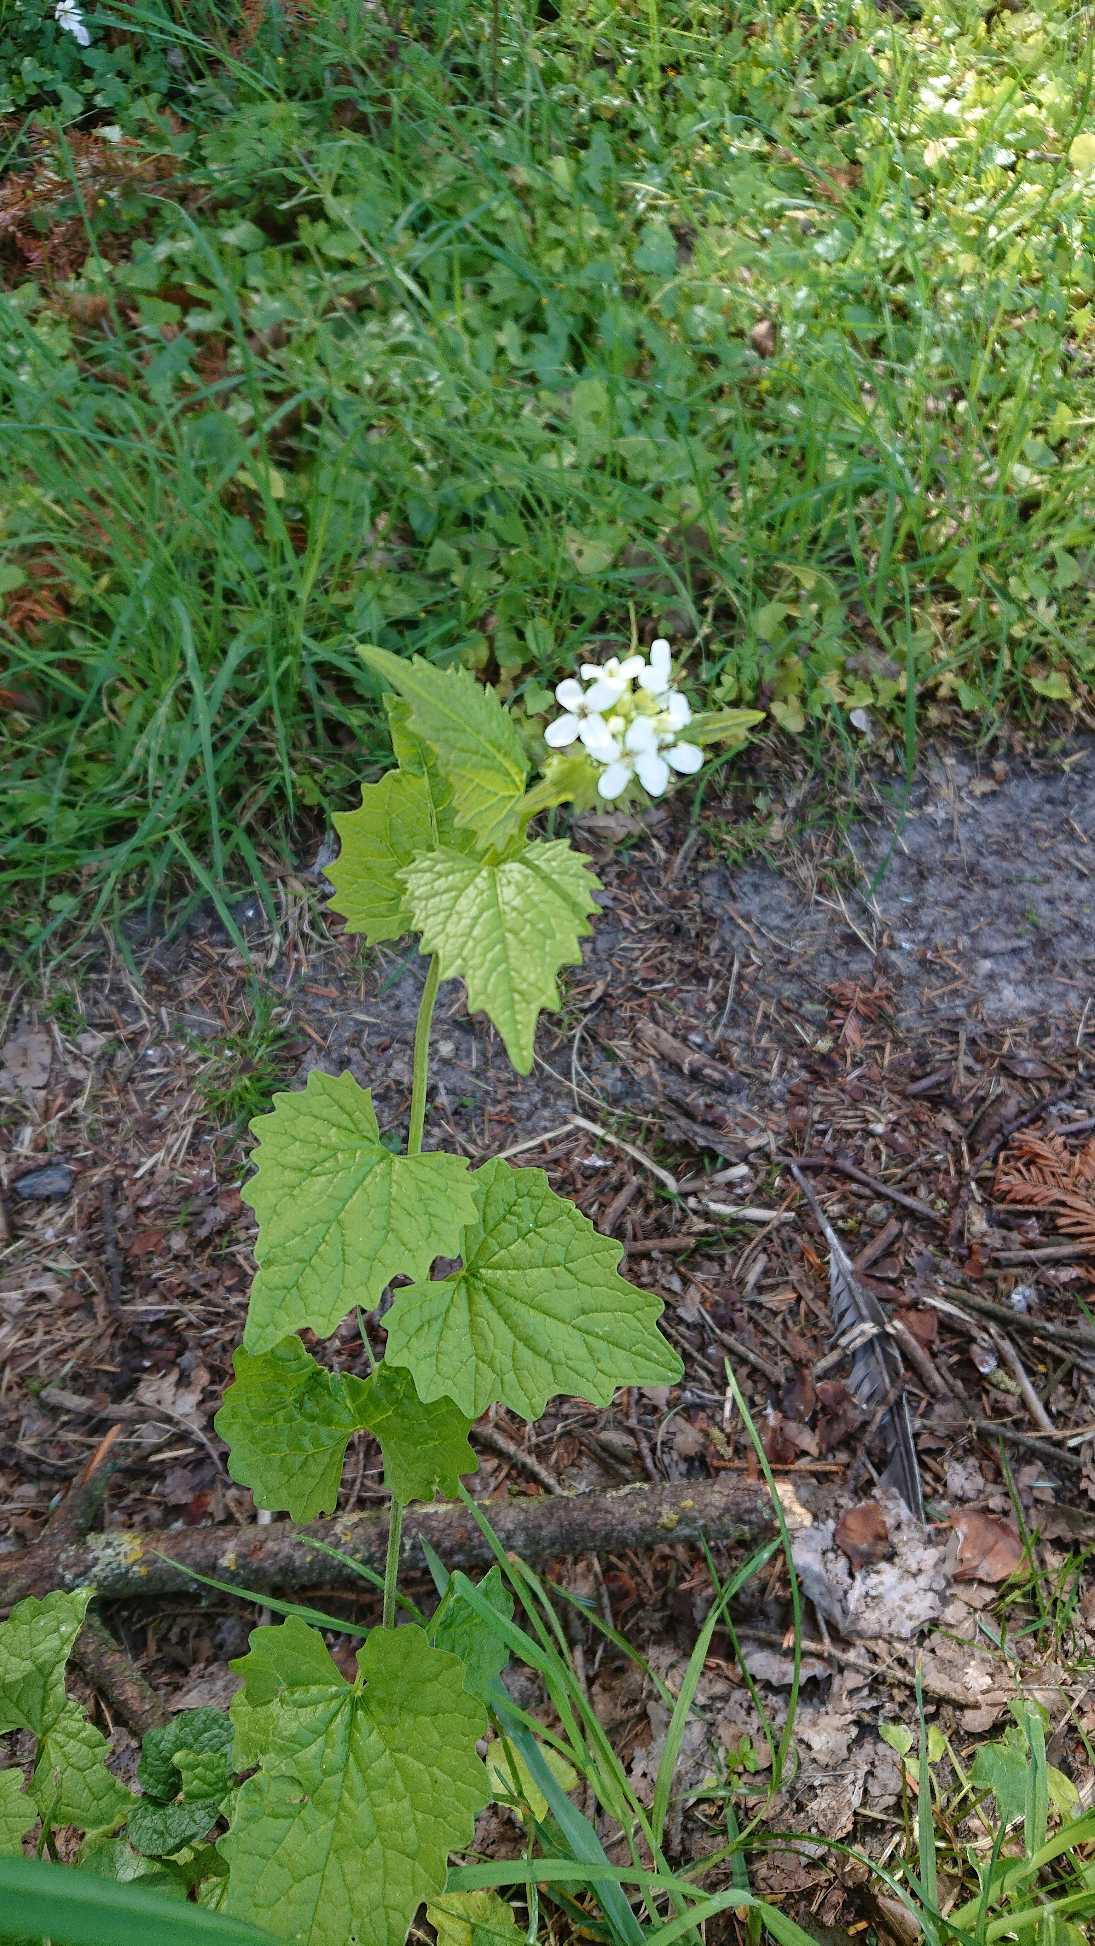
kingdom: Plantae
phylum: Tracheophyta
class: Magnoliopsida
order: Brassicales
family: Brassicaceae
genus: Alliaria
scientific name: Alliaria petiolata
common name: Løgkarse
